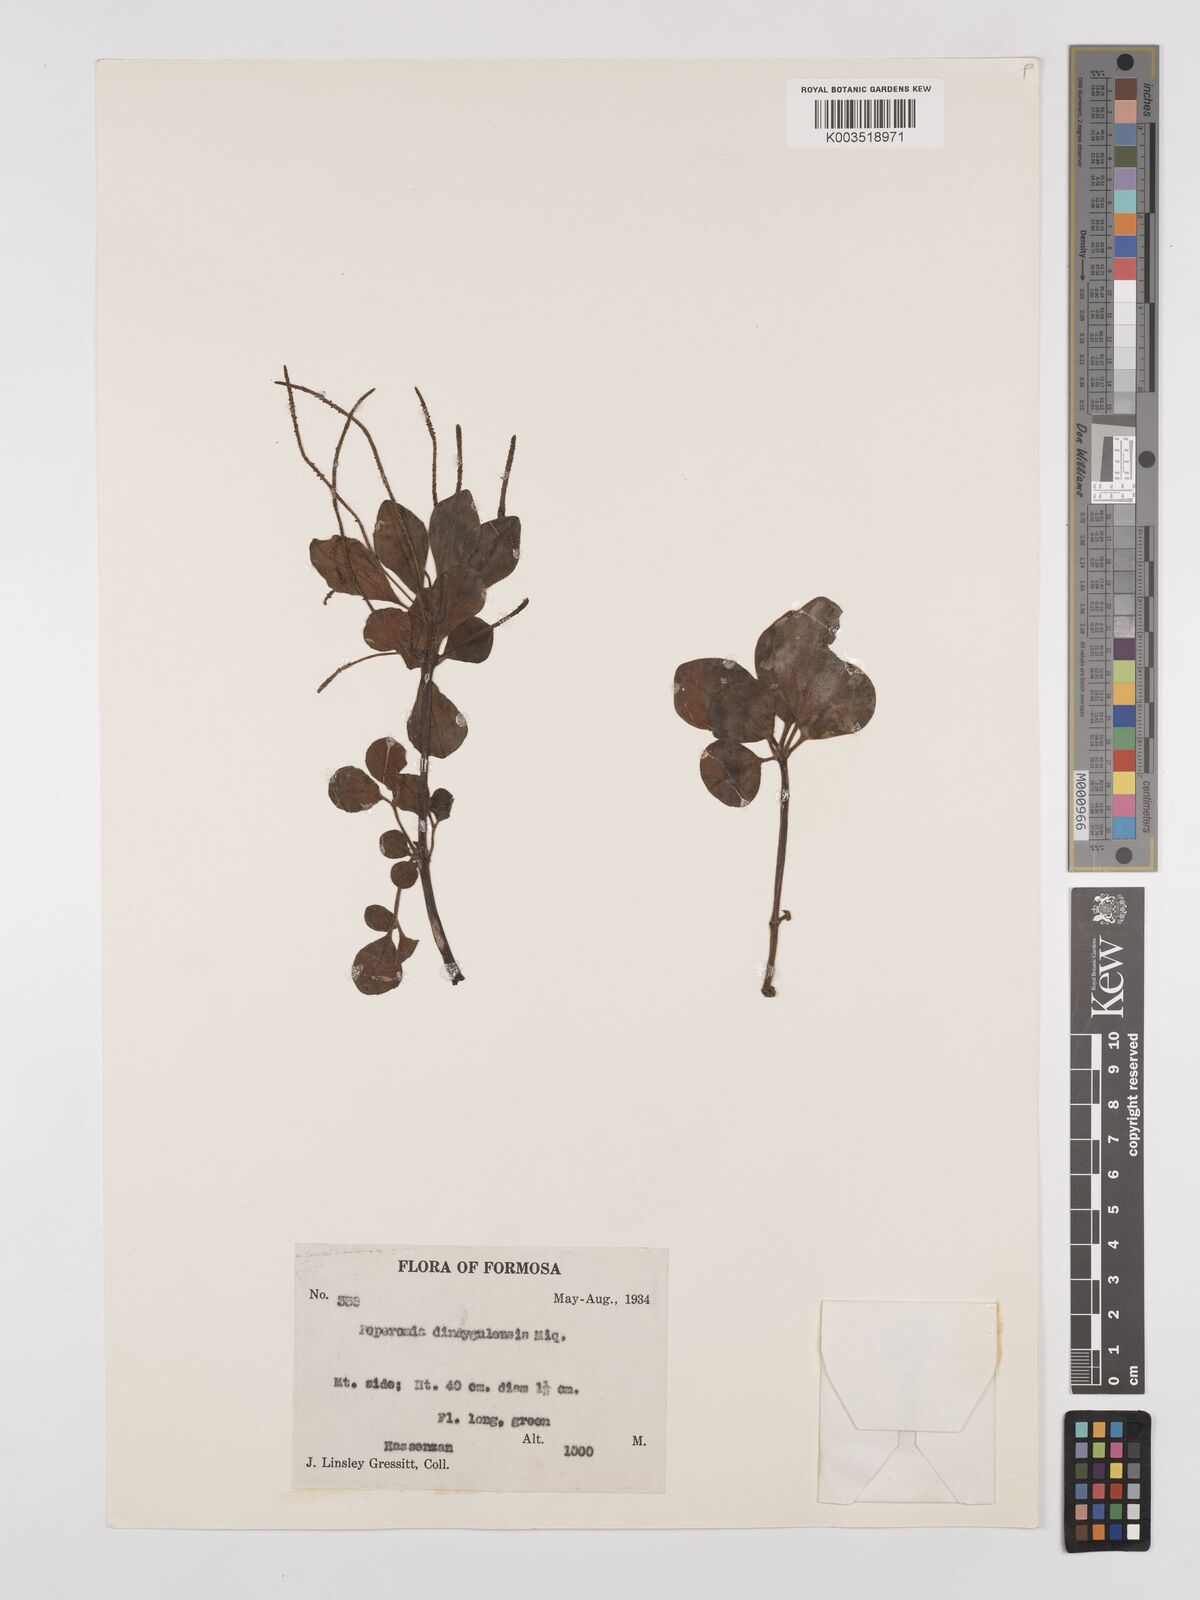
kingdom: Plantae
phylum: Tracheophyta
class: Magnoliopsida
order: Piperales
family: Piperaceae
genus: Peperomia
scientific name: Peperomia leptostachya
